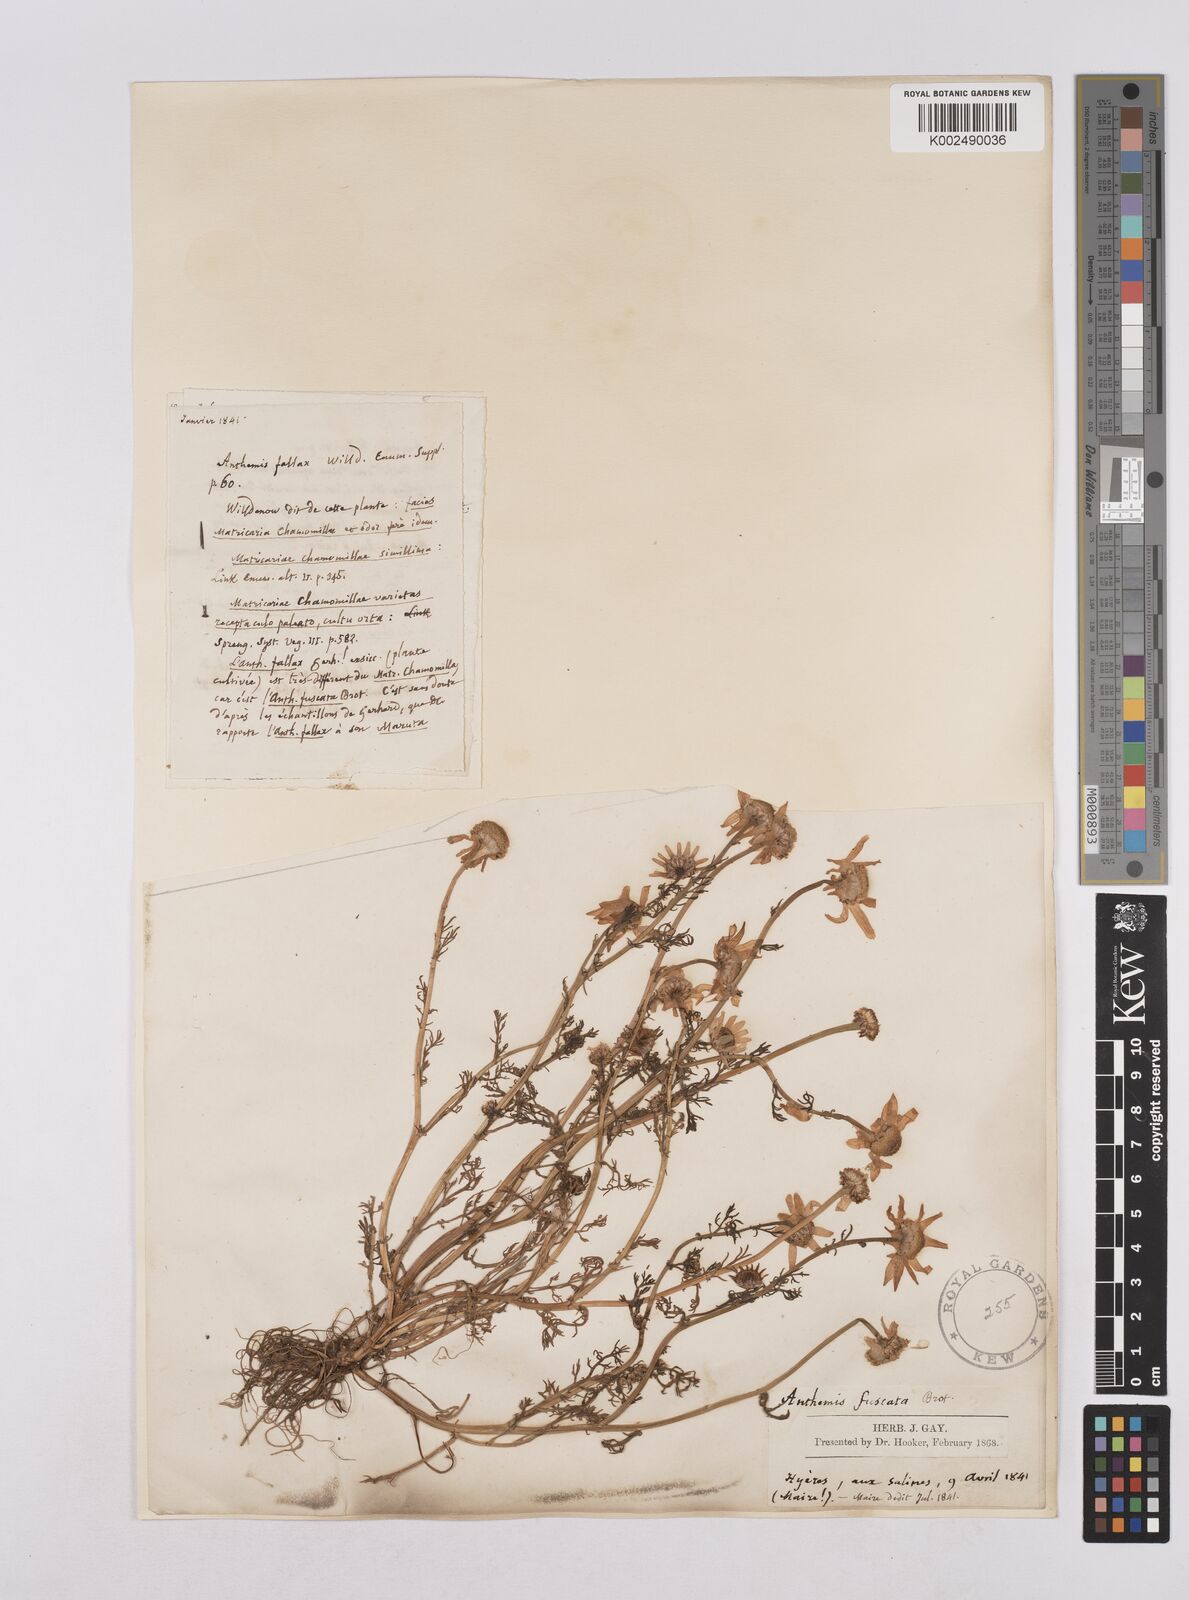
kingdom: Plantae
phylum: Tracheophyta
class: Magnoliopsida
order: Asterales
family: Asteraceae
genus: Chamaemelum
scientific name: Chamaemelum fuscatum
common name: Chamomile
